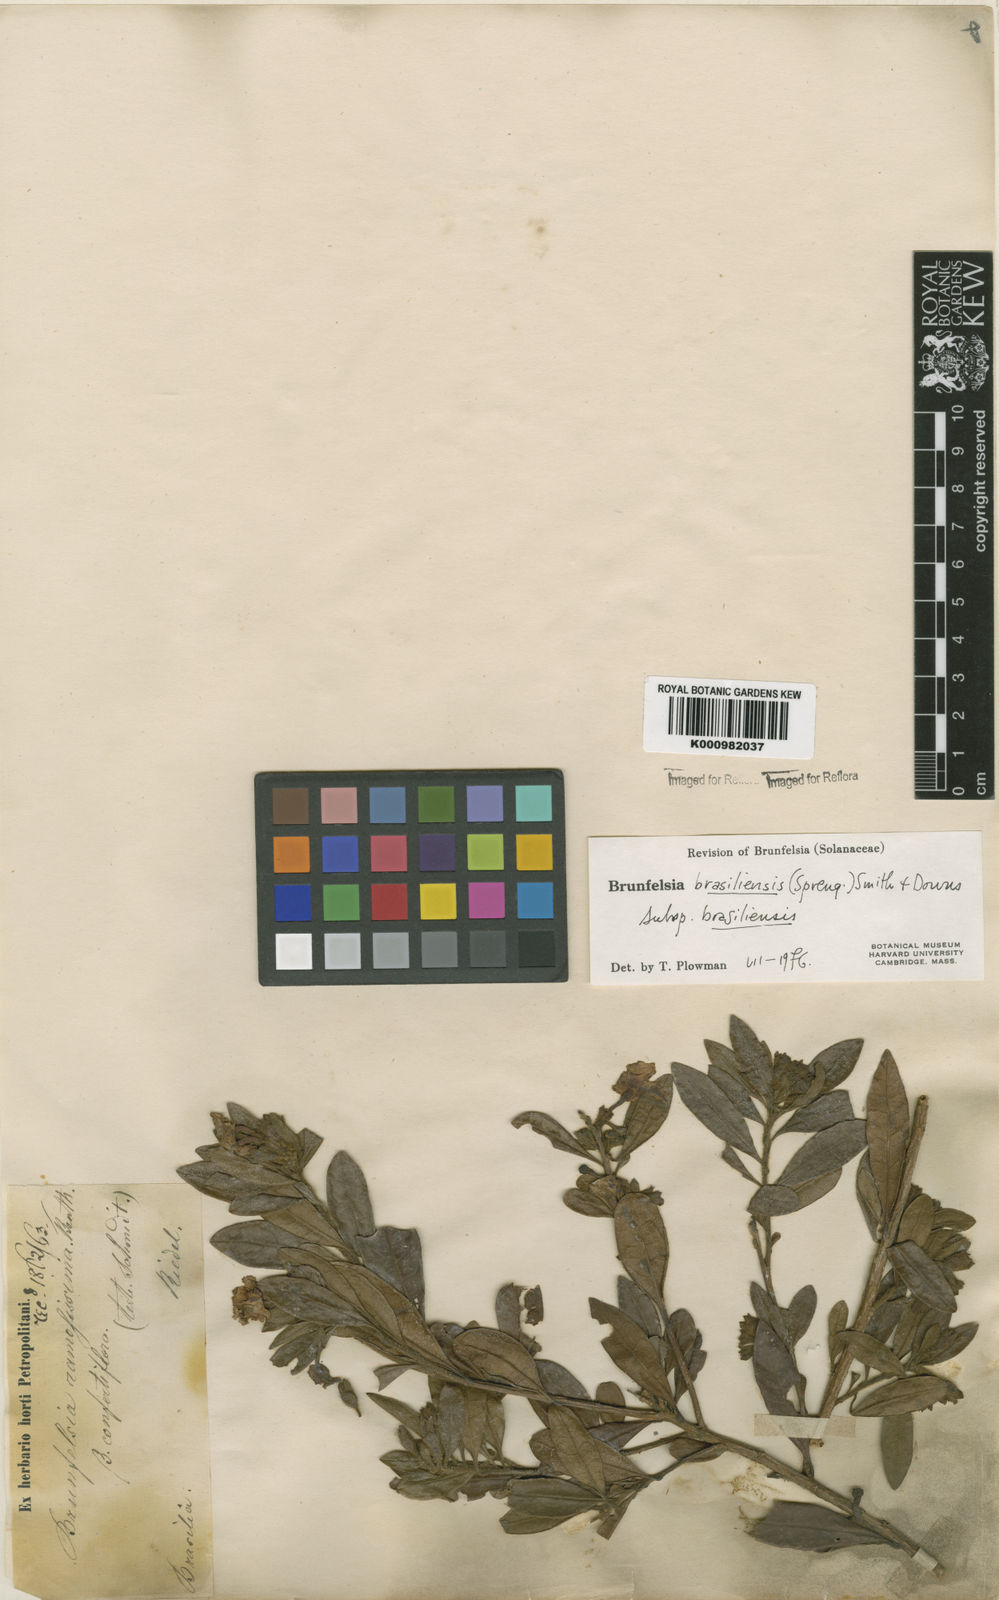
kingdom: Plantae
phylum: Tracheophyta
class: Magnoliopsida
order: Solanales
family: Solanaceae
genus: Brunfelsia
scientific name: Brunfelsia brasiliensis
